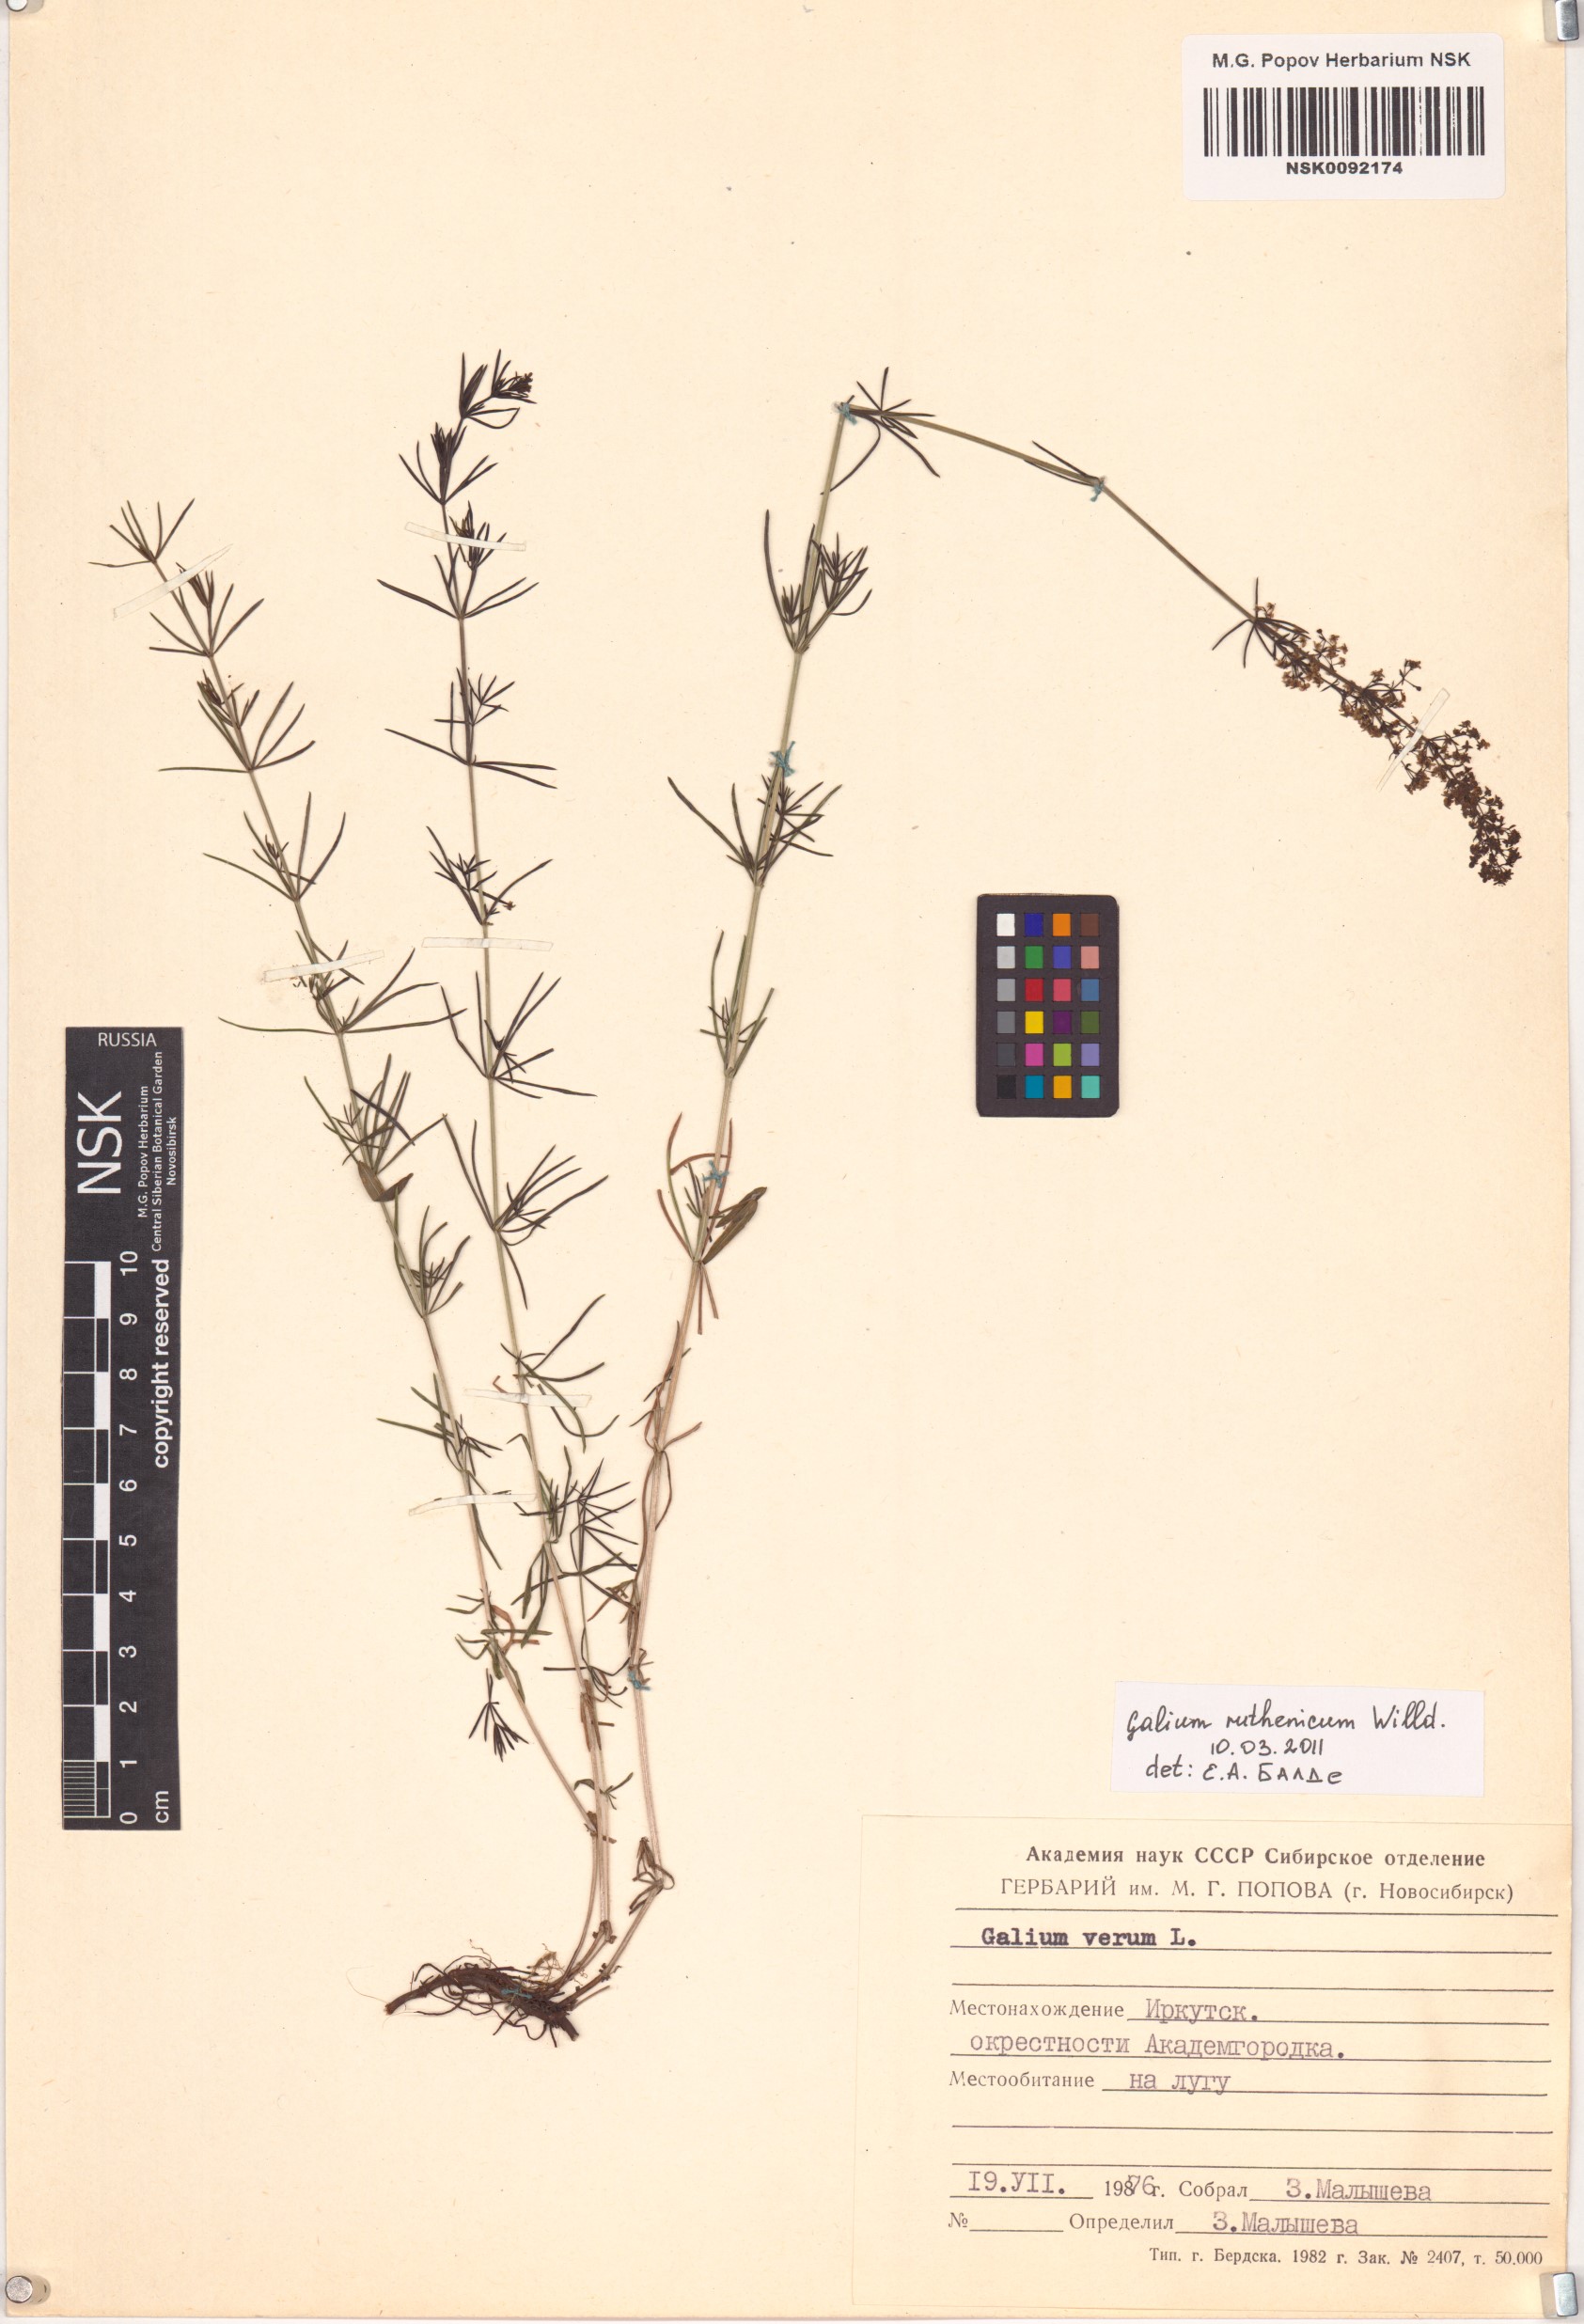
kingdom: Plantae
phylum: Tracheophyta
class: Magnoliopsida
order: Gentianales
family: Rubiaceae
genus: Galium
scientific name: Galium verum
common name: Lady's bedstraw
